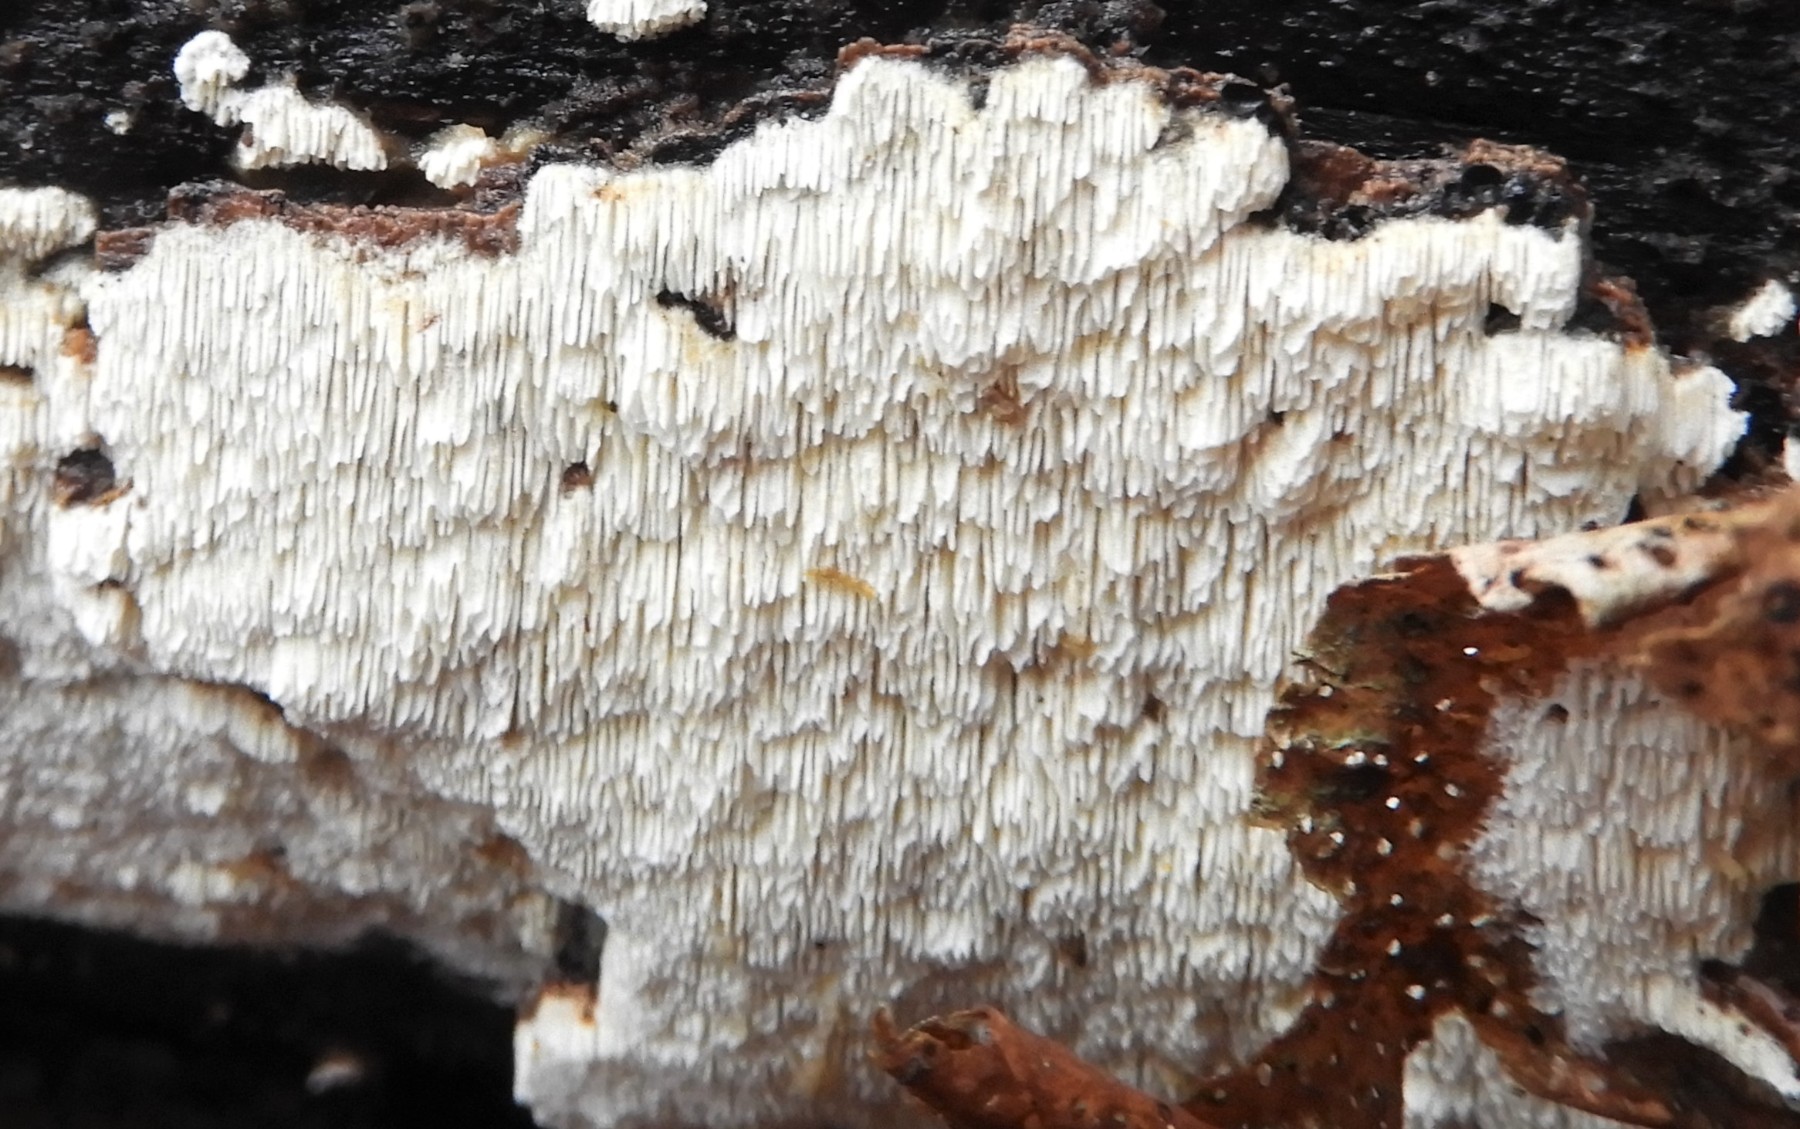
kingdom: Fungi
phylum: Basidiomycota
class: Agaricomycetes
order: Hymenochaetales
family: Schizoporaceae
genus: Schizopora
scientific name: Schizopora paradoxa
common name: hvid tandsvamp
